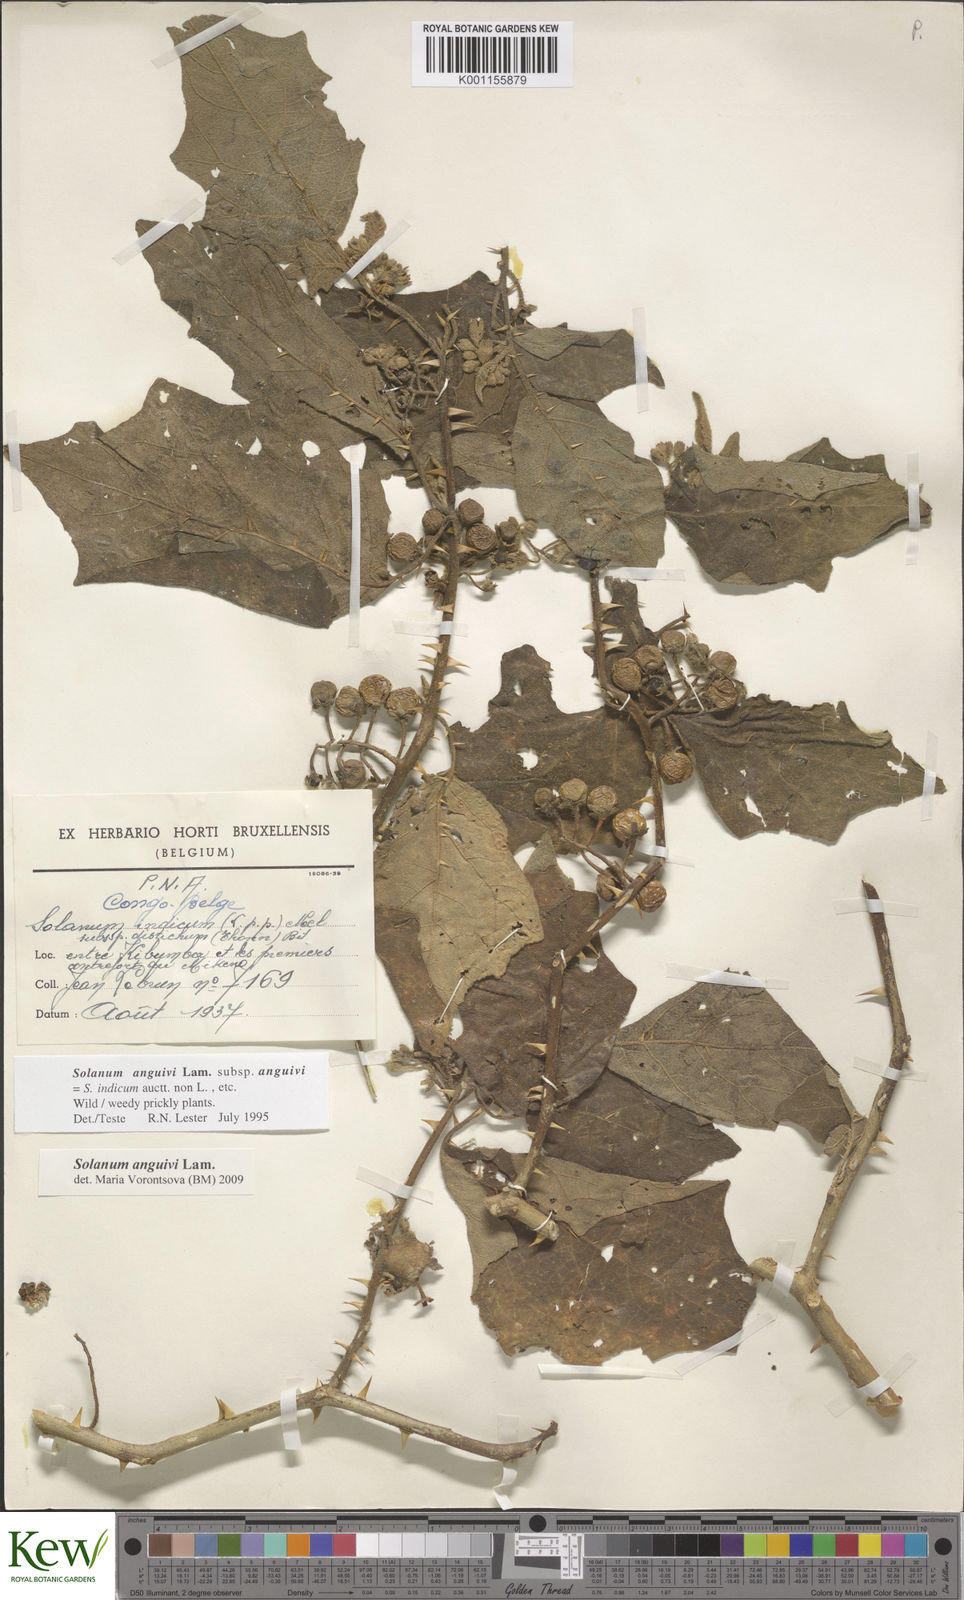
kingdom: Plantae
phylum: Tracheophyta
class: Magnoliopsida
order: Solanales
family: Solanaceae
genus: Solanum
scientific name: Solanum anguivi
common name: Forest bitterberry
